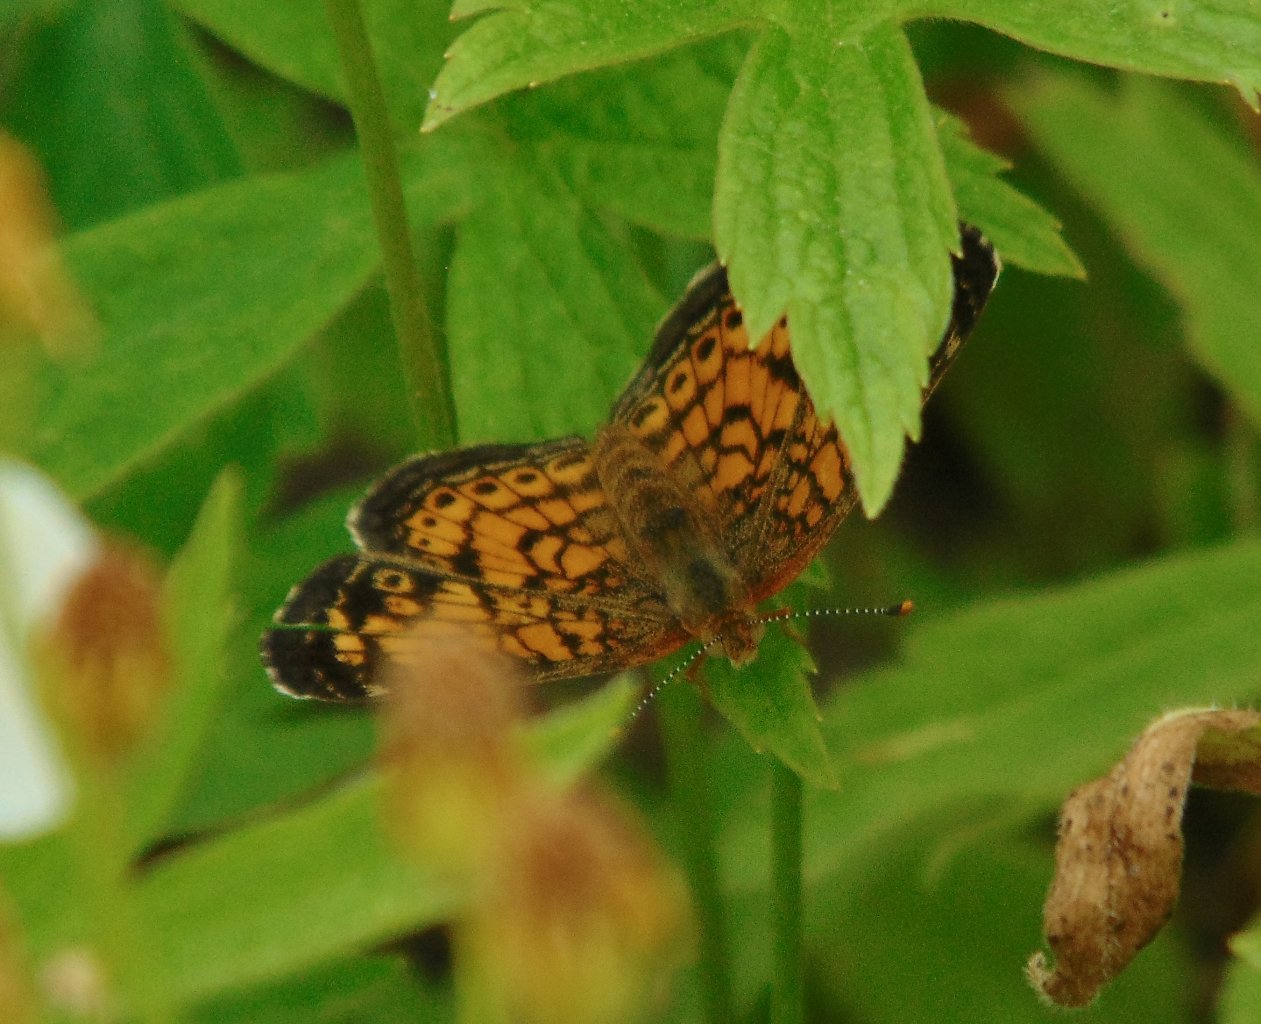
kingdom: Animalia
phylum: Arthropoda
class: Insecta
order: Lepidoptera
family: Nymphalidae
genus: Phyciodes
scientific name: Phyciodes tharos
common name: Pearl Crescent
